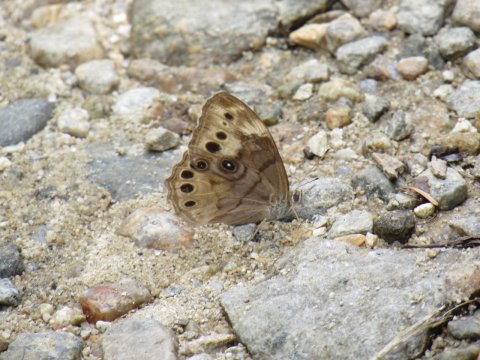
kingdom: Animalia
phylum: Arthropoda
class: Insecta
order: Lepidoptera
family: Nymphalidae
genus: Lethe
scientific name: Lethe anthedon
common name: Northern Pearly-Eye
